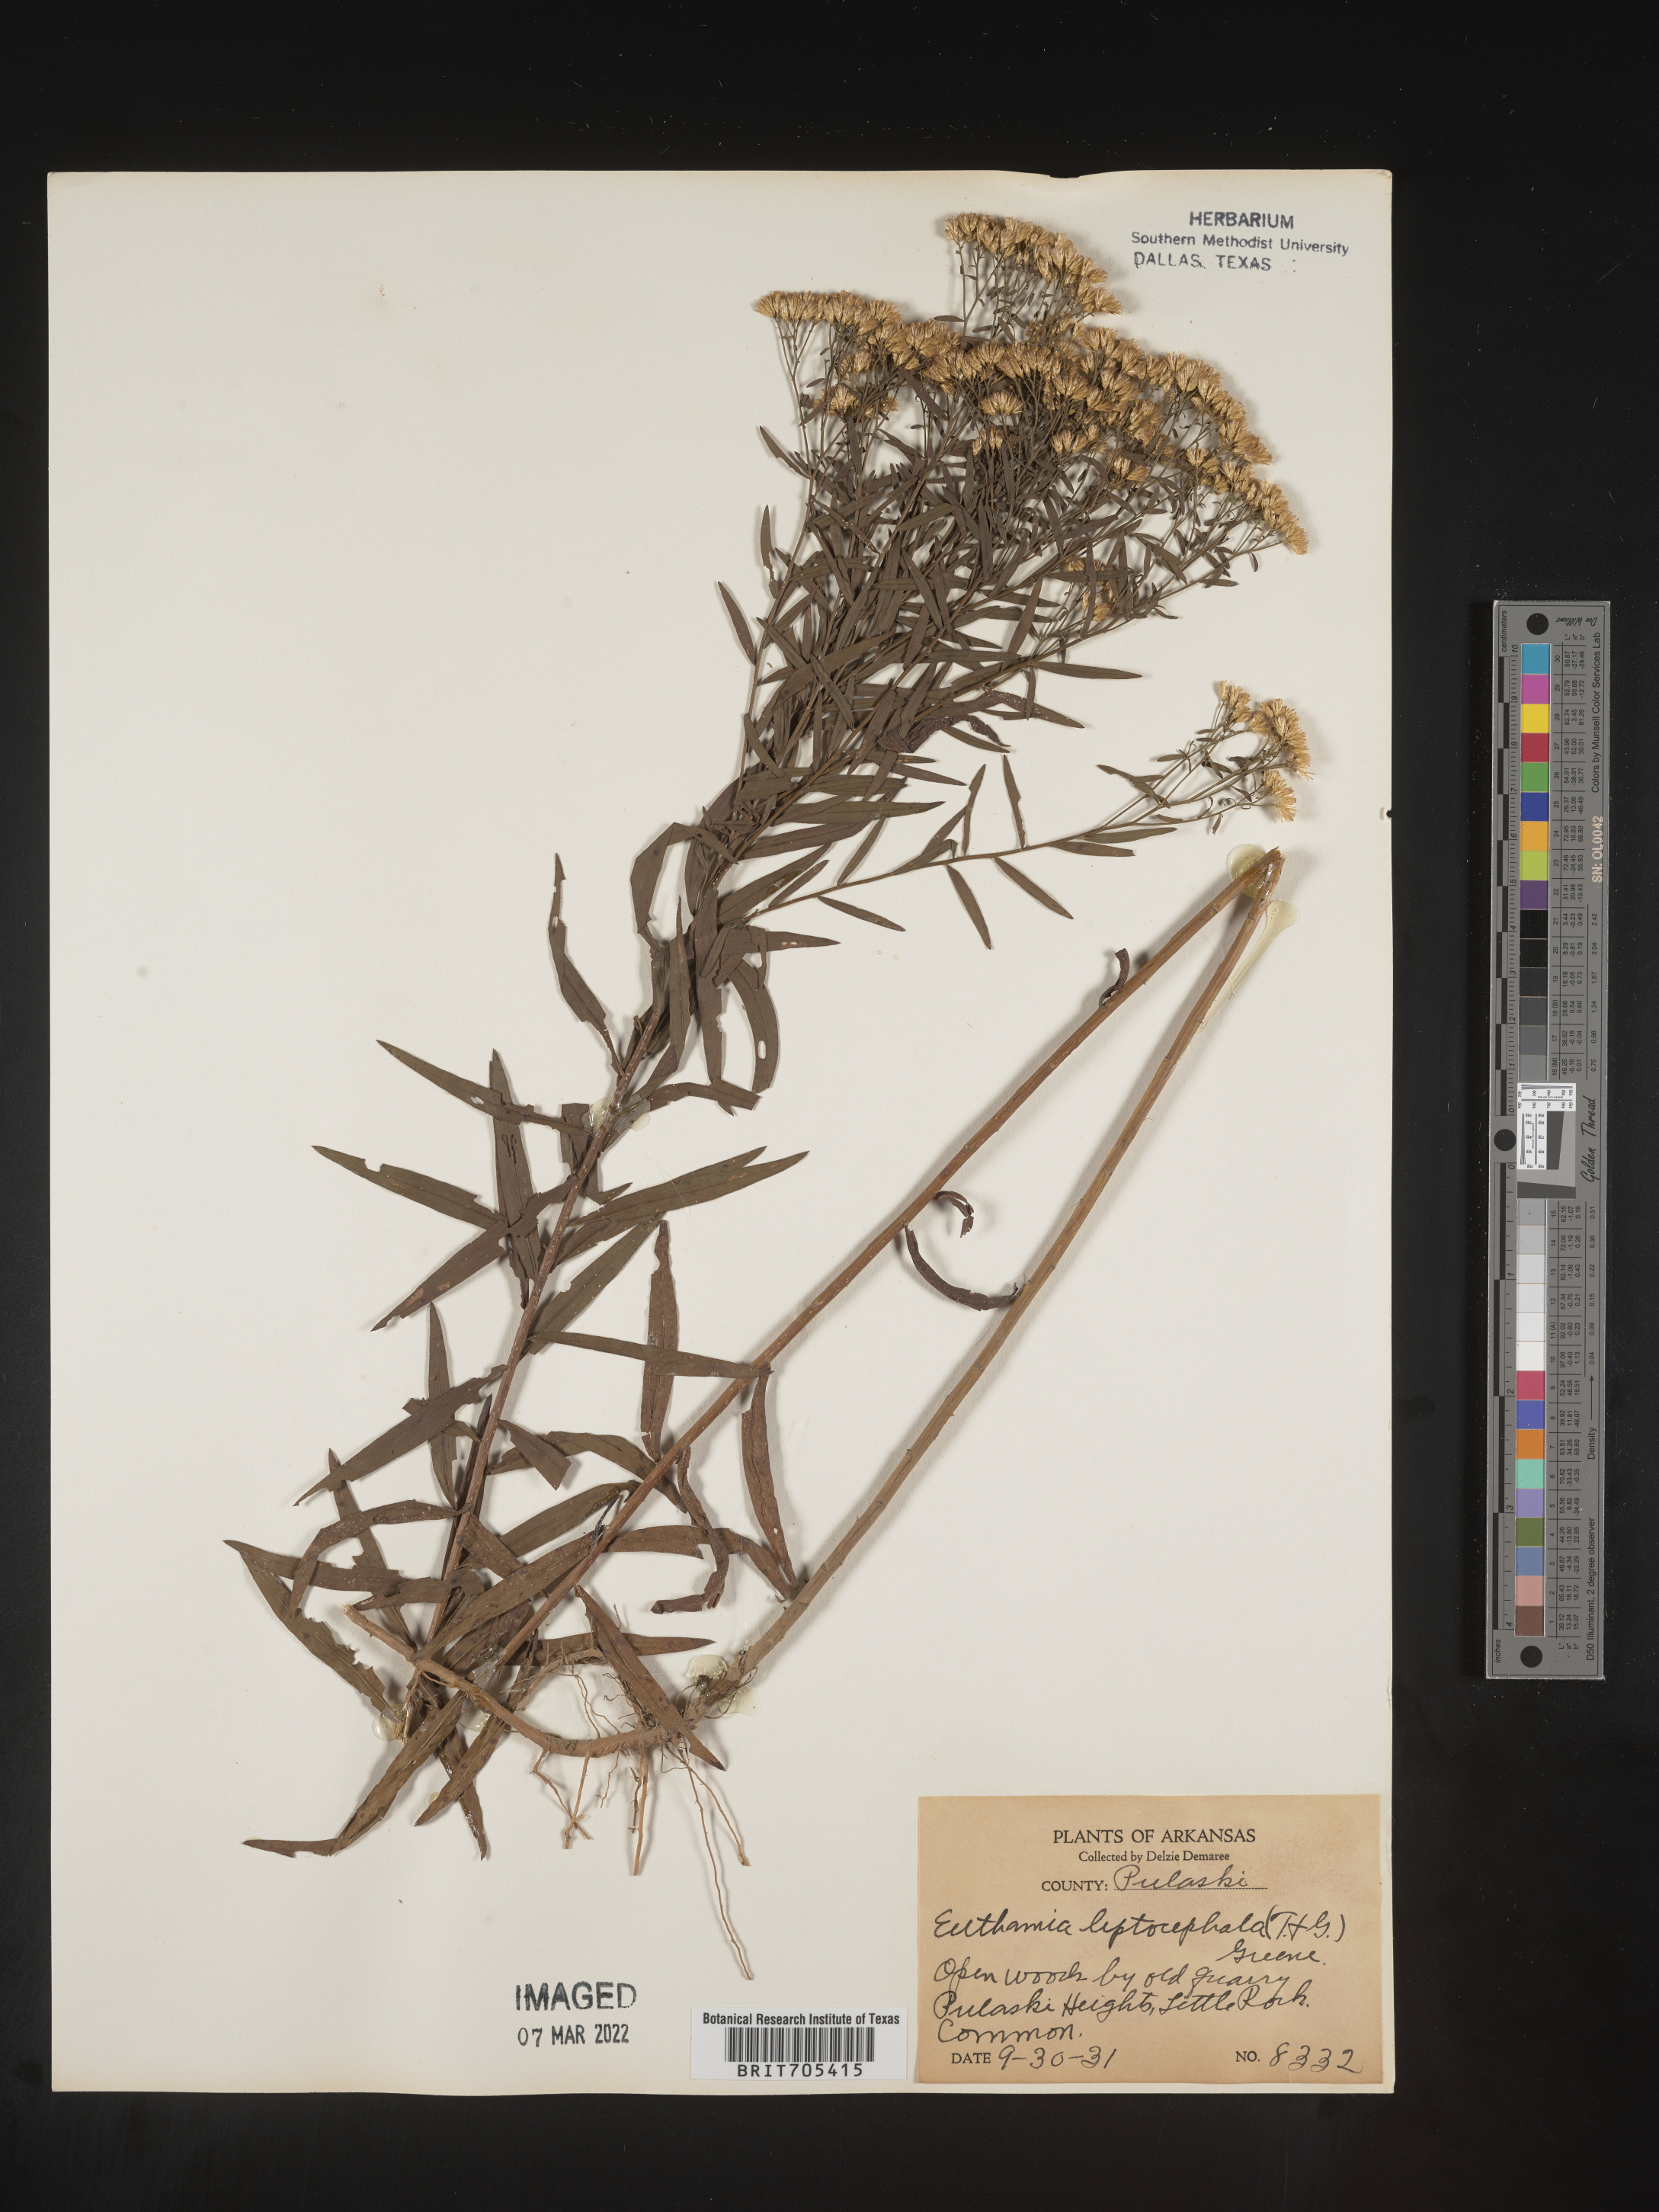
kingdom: Plantae
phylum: Tracheophyta
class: Magnoliopsida
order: Asterales
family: Asteraceae
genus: Euthamia
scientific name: Euthamia leptocephala
